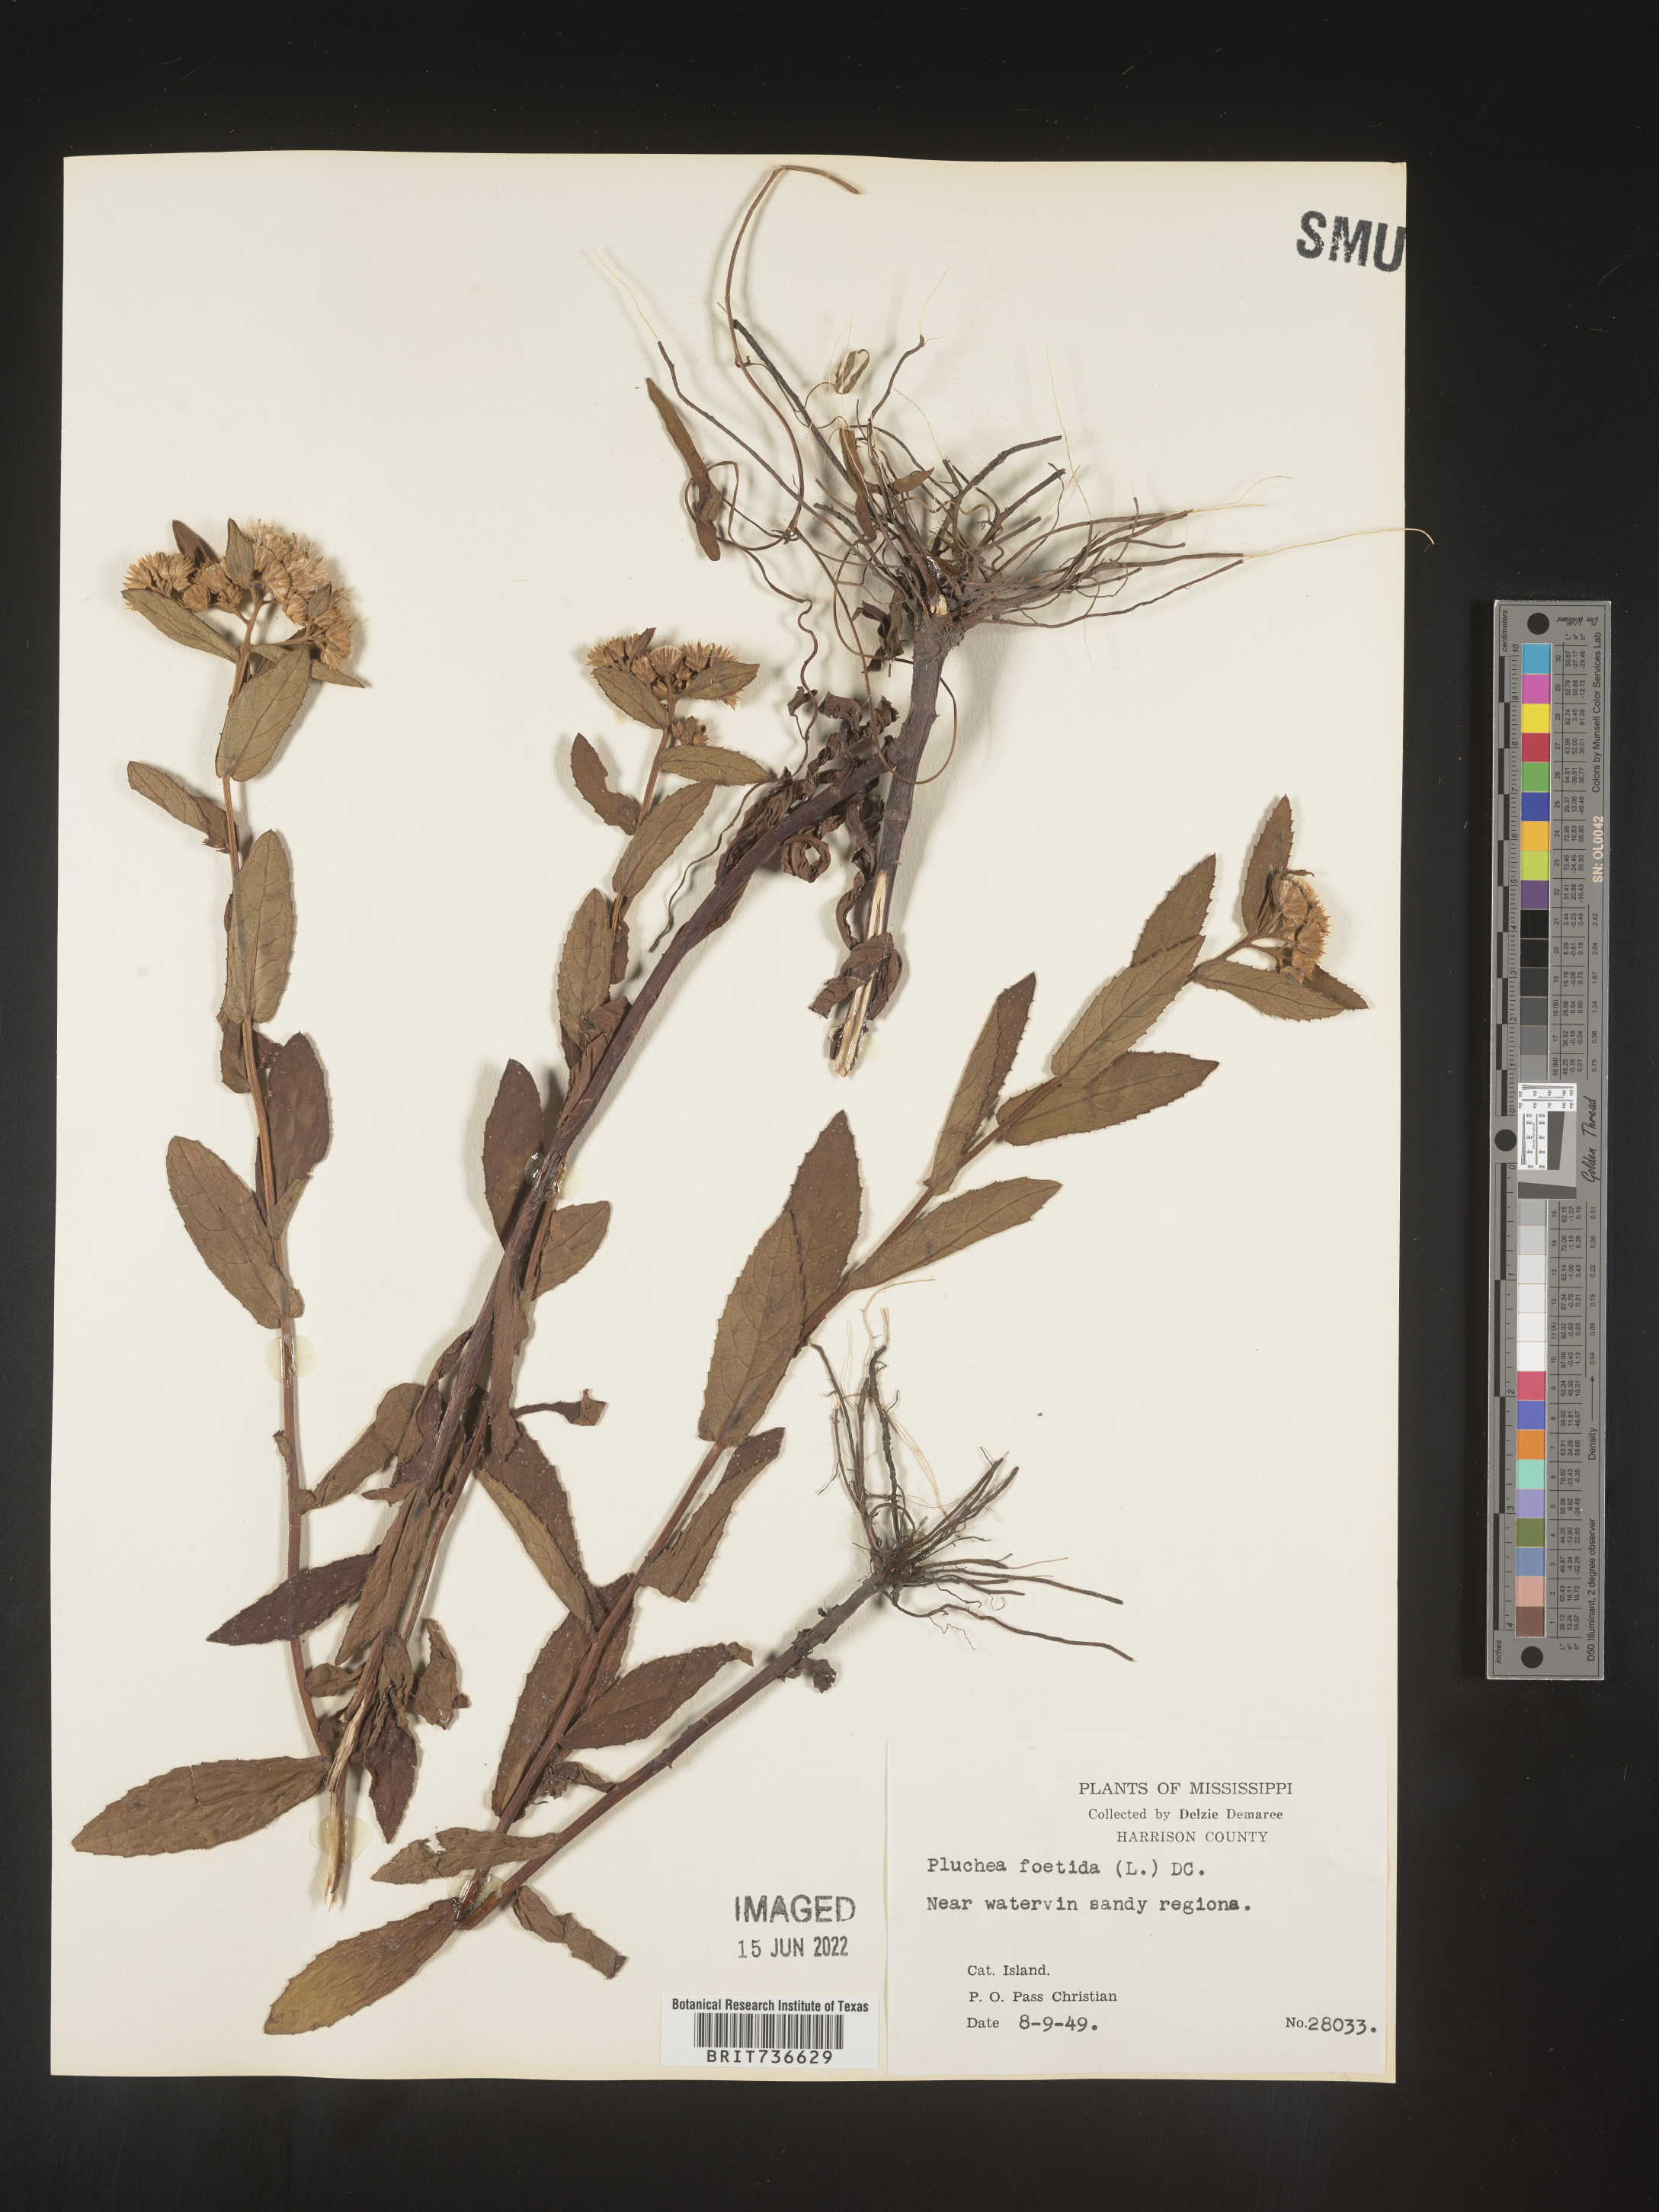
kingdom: Plantae
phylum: Tracheophyta
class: Magnoliopsida
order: Asterales
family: Asteraceae
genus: Pluchea
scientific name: Pluchea foetida
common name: Stinking camphorweed
